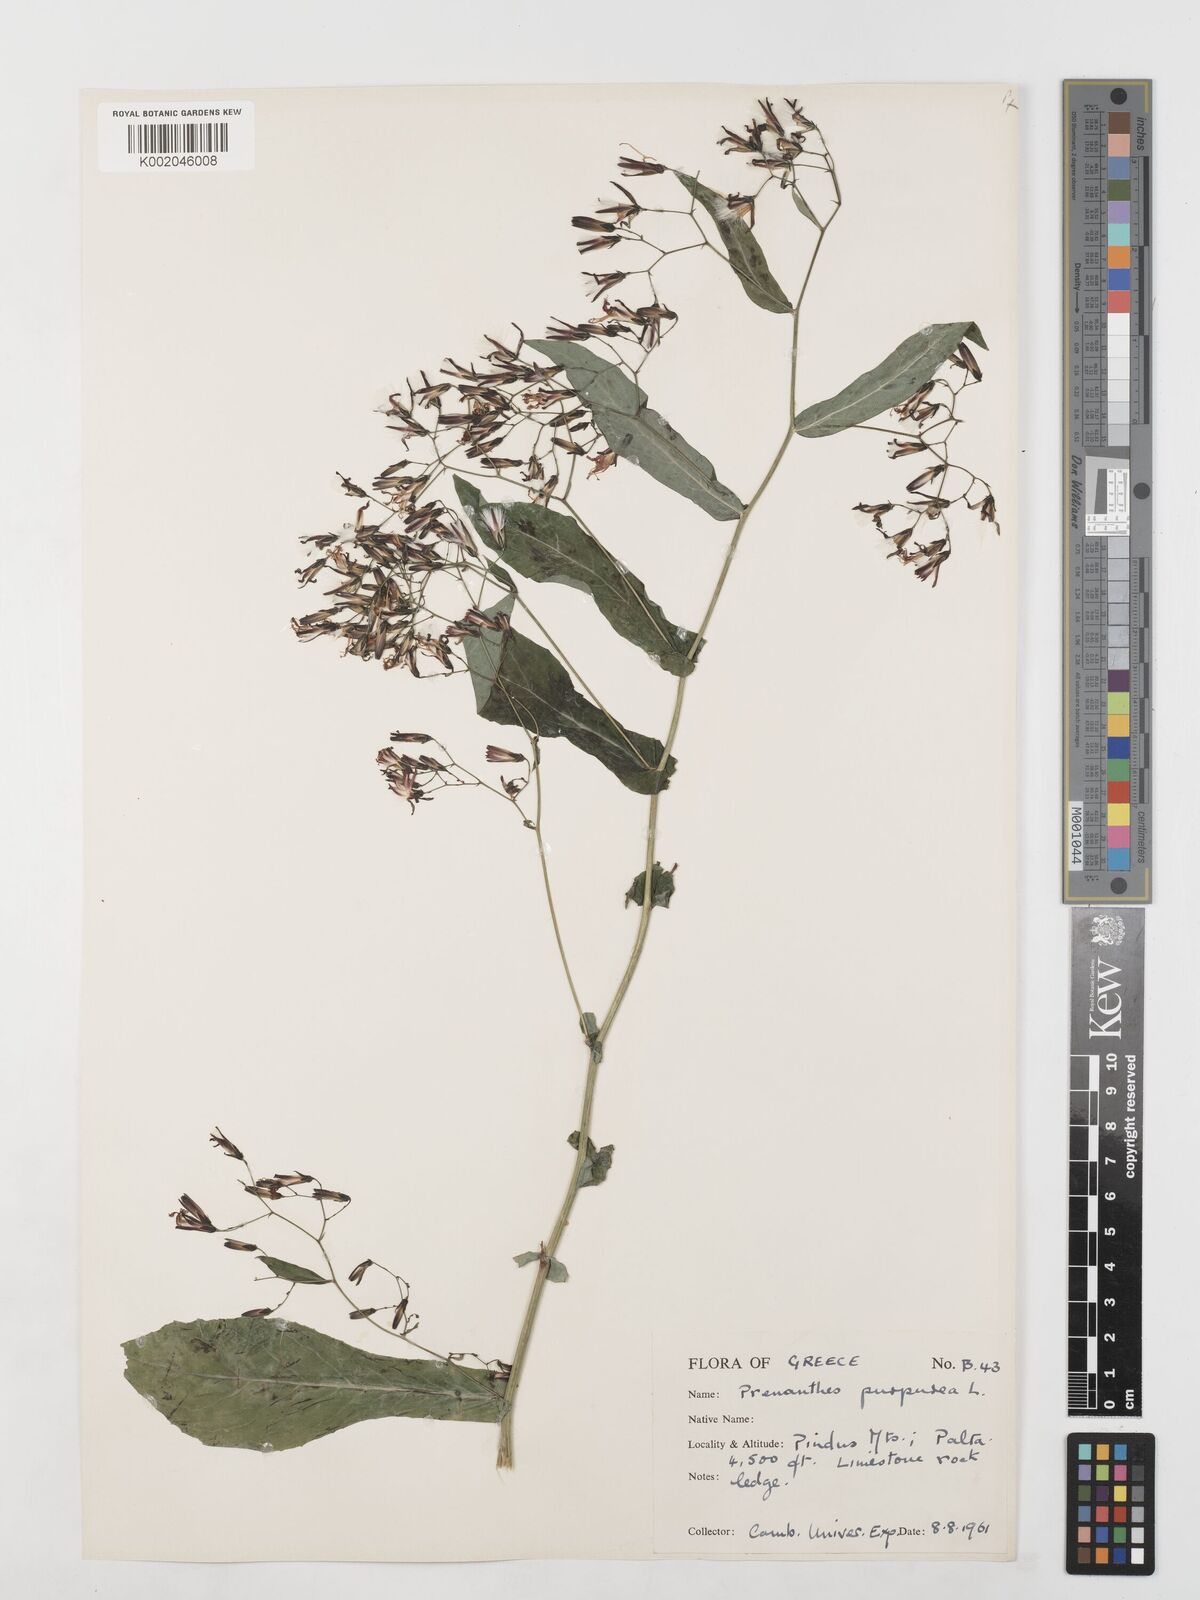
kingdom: Plantae
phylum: Tracheophyta
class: Magnoliopsida
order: Asterales
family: Asteraceae
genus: Prenanthes
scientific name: Prenanthes purpurea
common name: Purple lettuce
